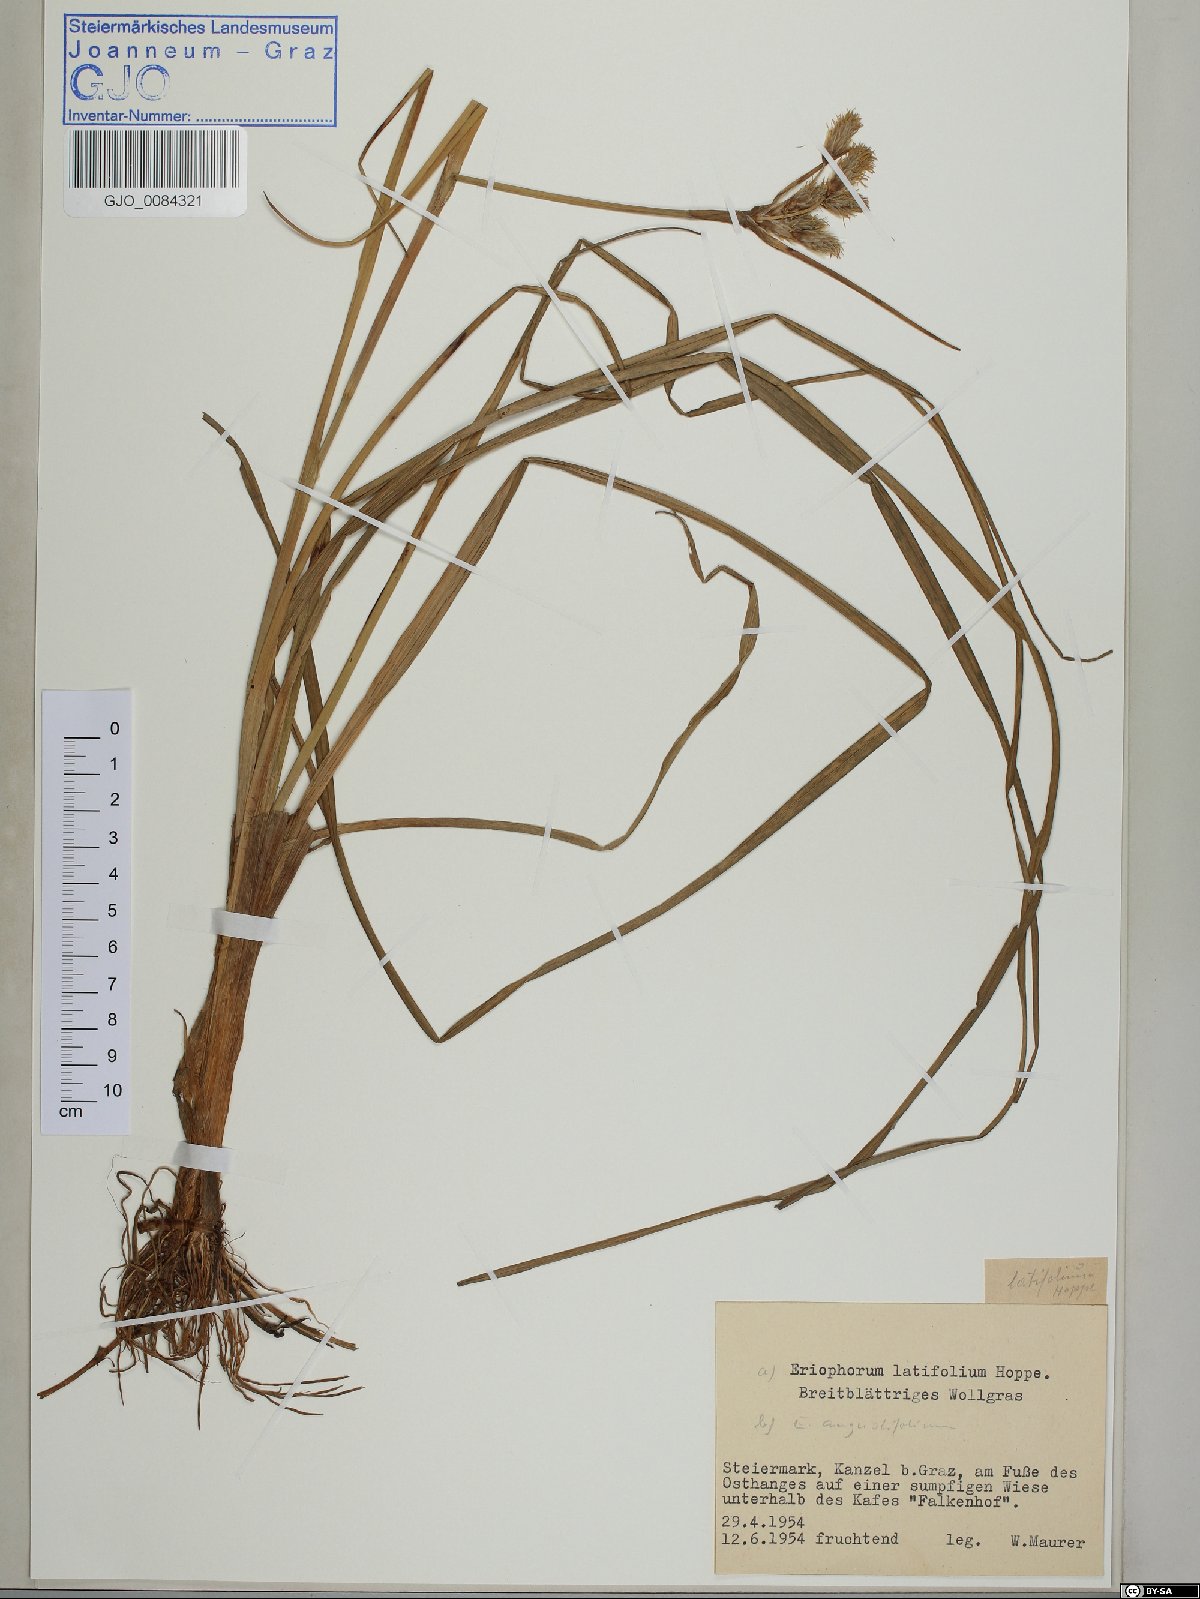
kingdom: Plantae
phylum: Tracheophyta
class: Liliopsida
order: Poales
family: Cyperaceae
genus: Eriophorum
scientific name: Eriophorum latifolium
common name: Broad-leaved cottongrass
